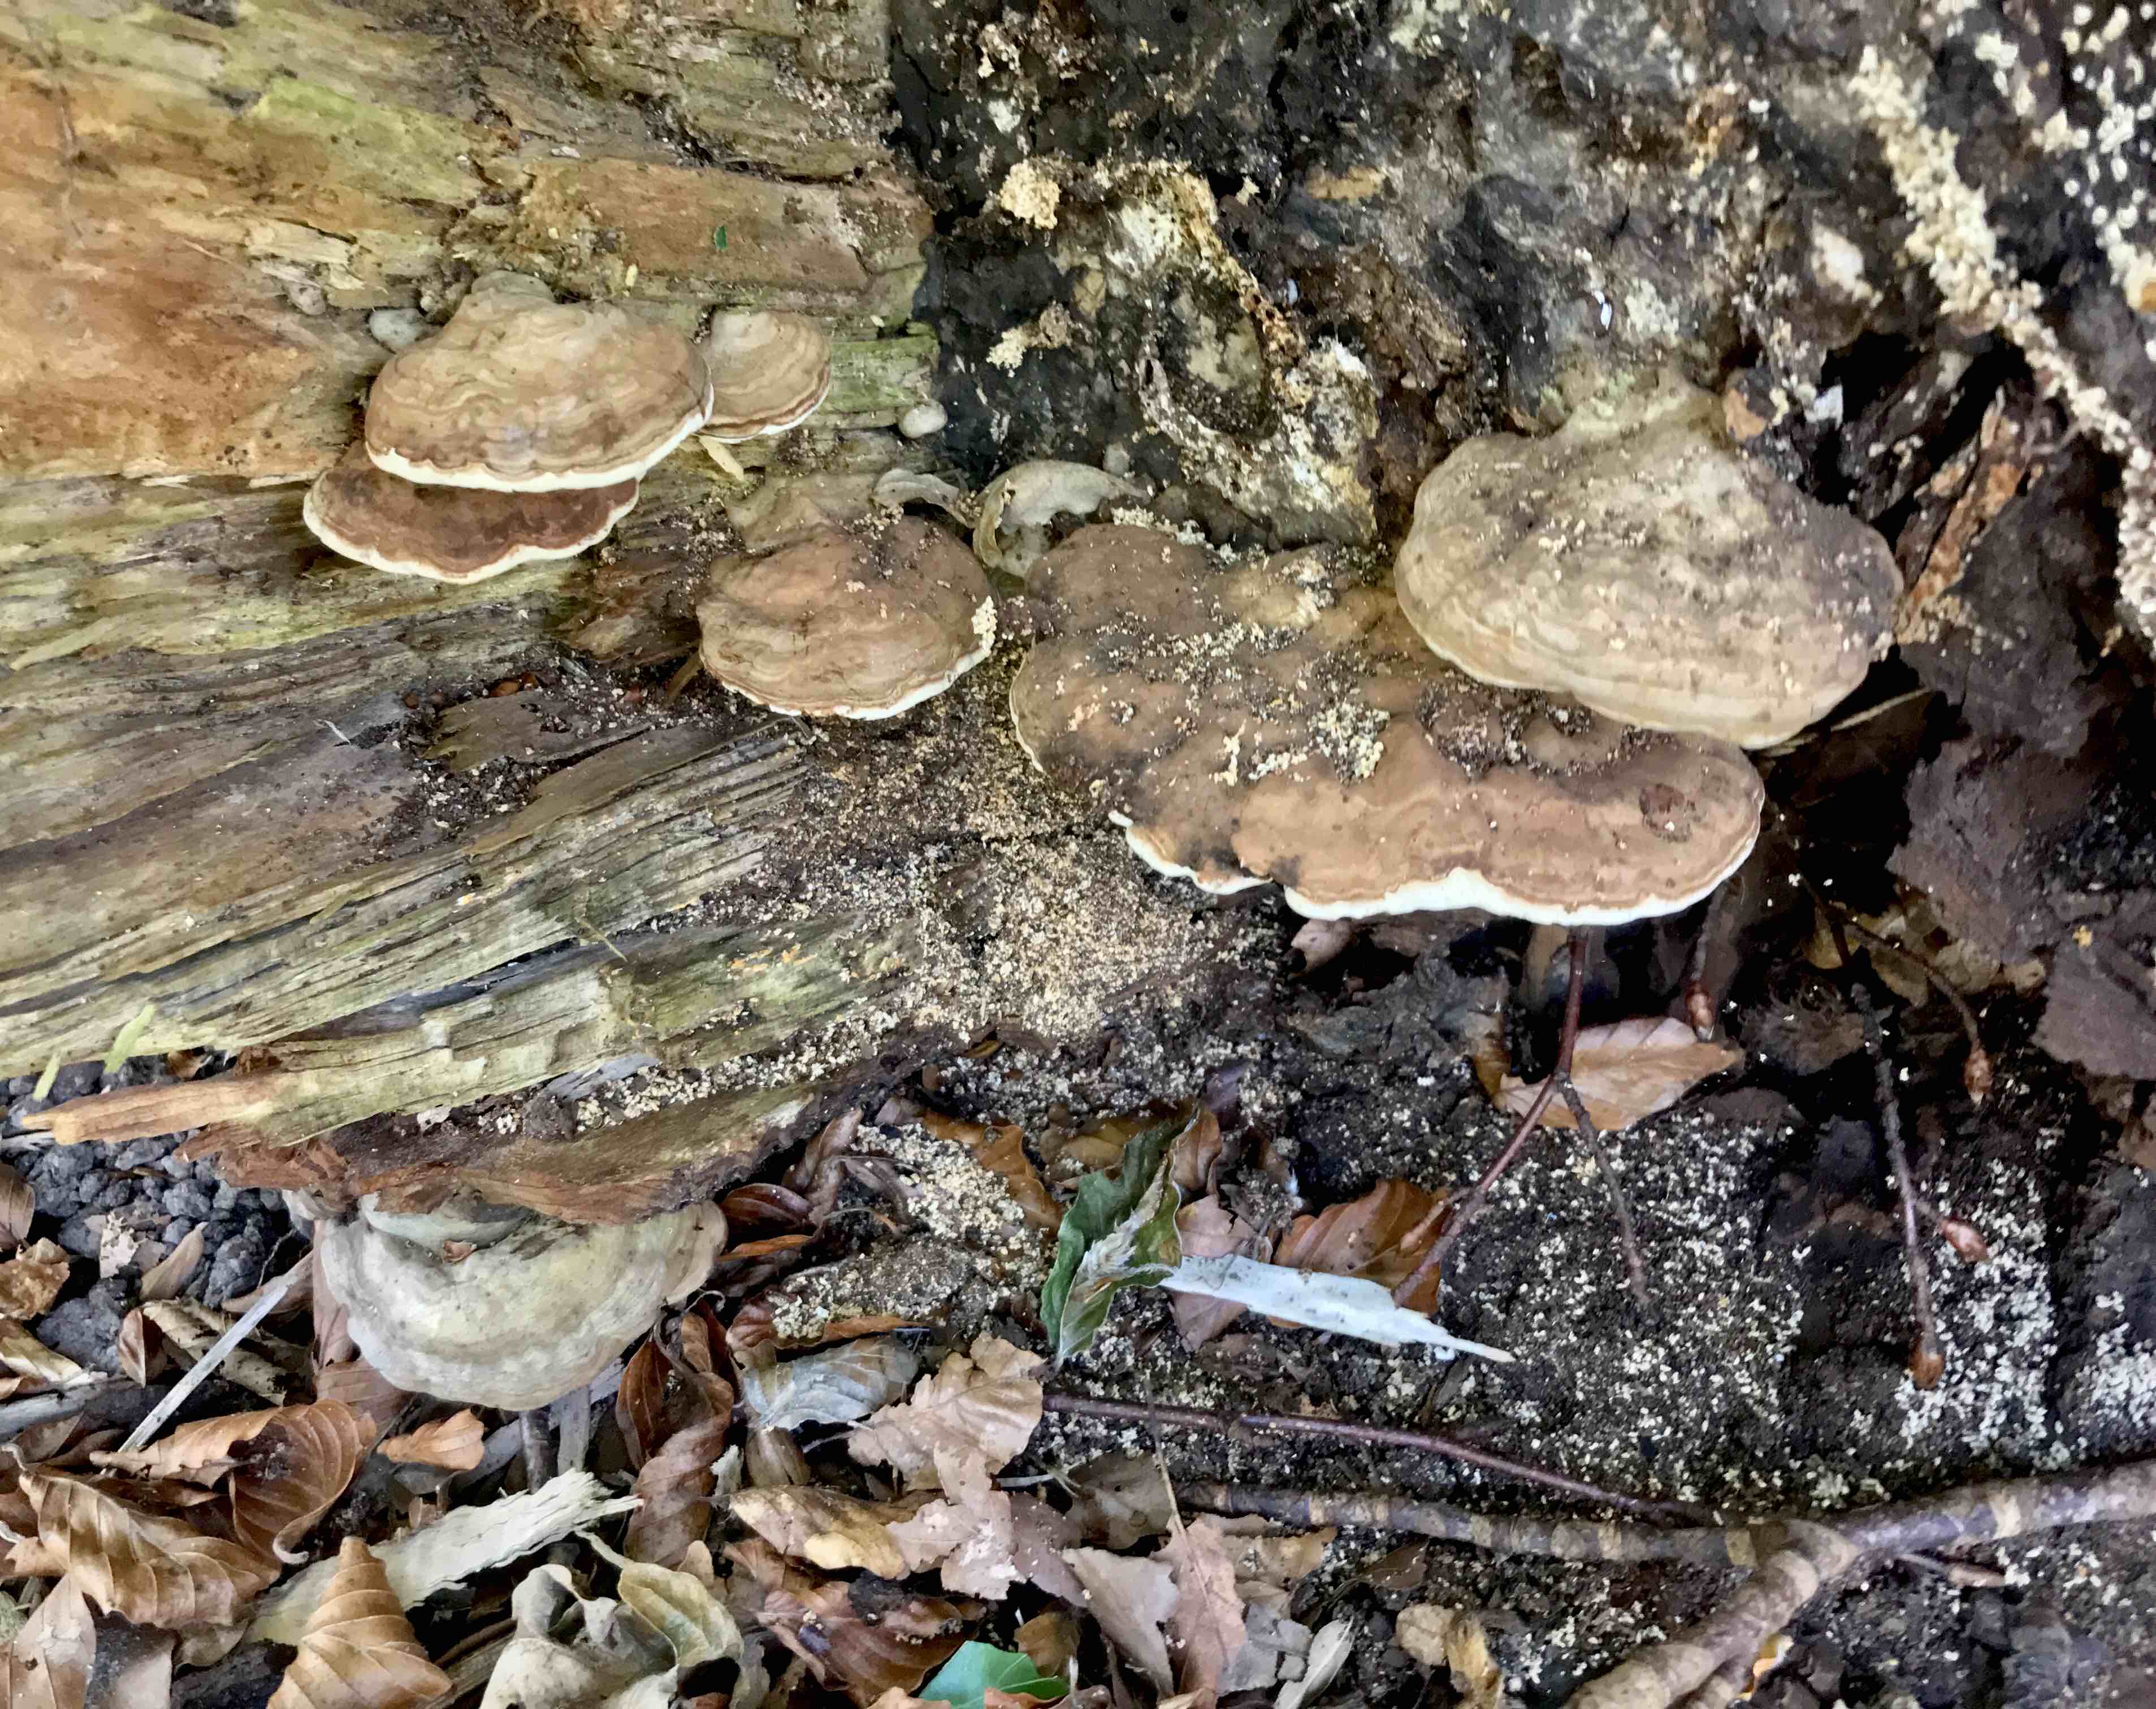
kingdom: Fungi
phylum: Basidiomycota
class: Agaricomycetes
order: Polyporales
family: Polyporaceae
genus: Ganoderma
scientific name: Ganoderma applanatum
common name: flad lakporesvamp
